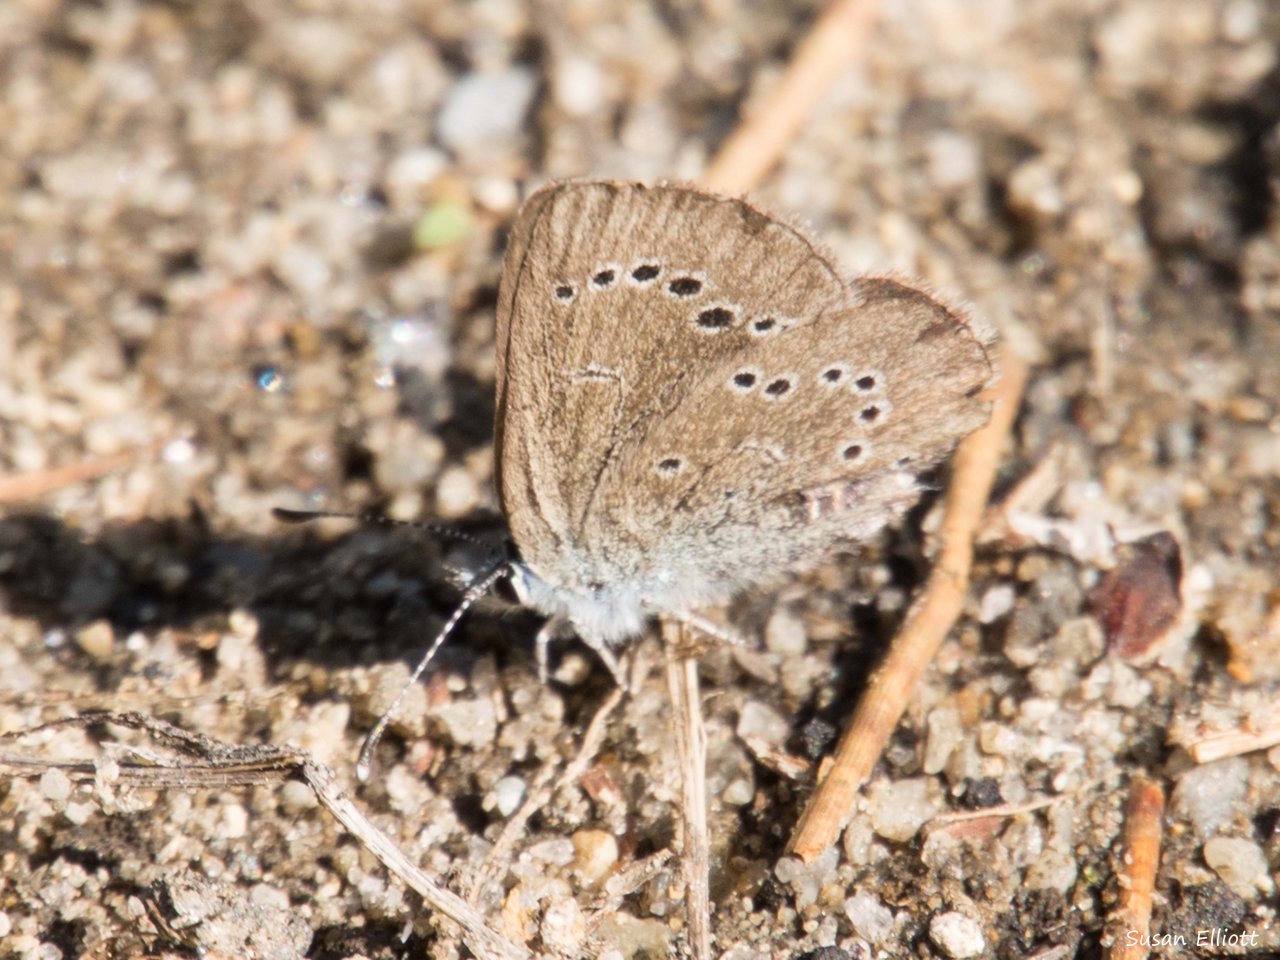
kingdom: Animalia
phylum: Arthropoda
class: Insecta
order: Lepidoptera
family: Lycaenidae
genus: Glaucopsyche
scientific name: Glaucopsyche lygdamus
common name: Silvery Blue
